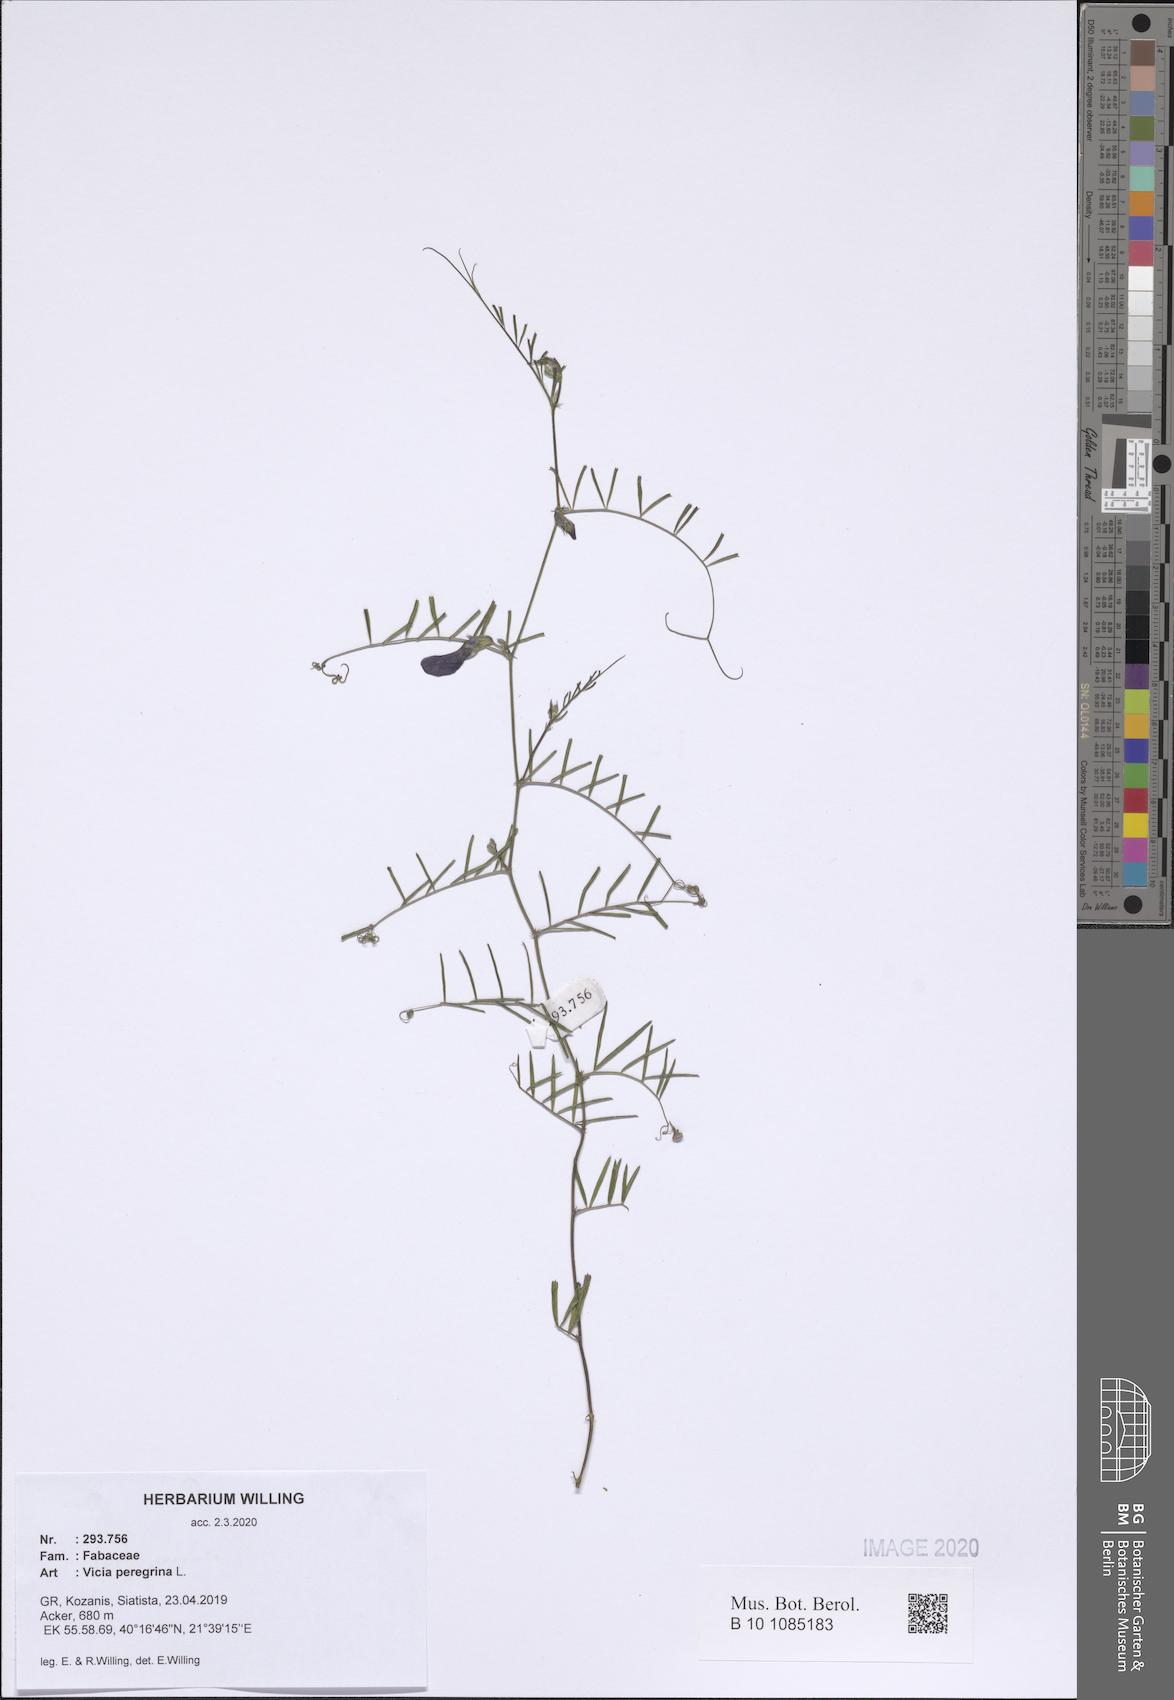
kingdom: Plantae
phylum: Tracheophyta
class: Magnoliopsida
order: Fabales
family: Fabaceae
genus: Vicia
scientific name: Vicia peregrina
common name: Broad-pod vetch
